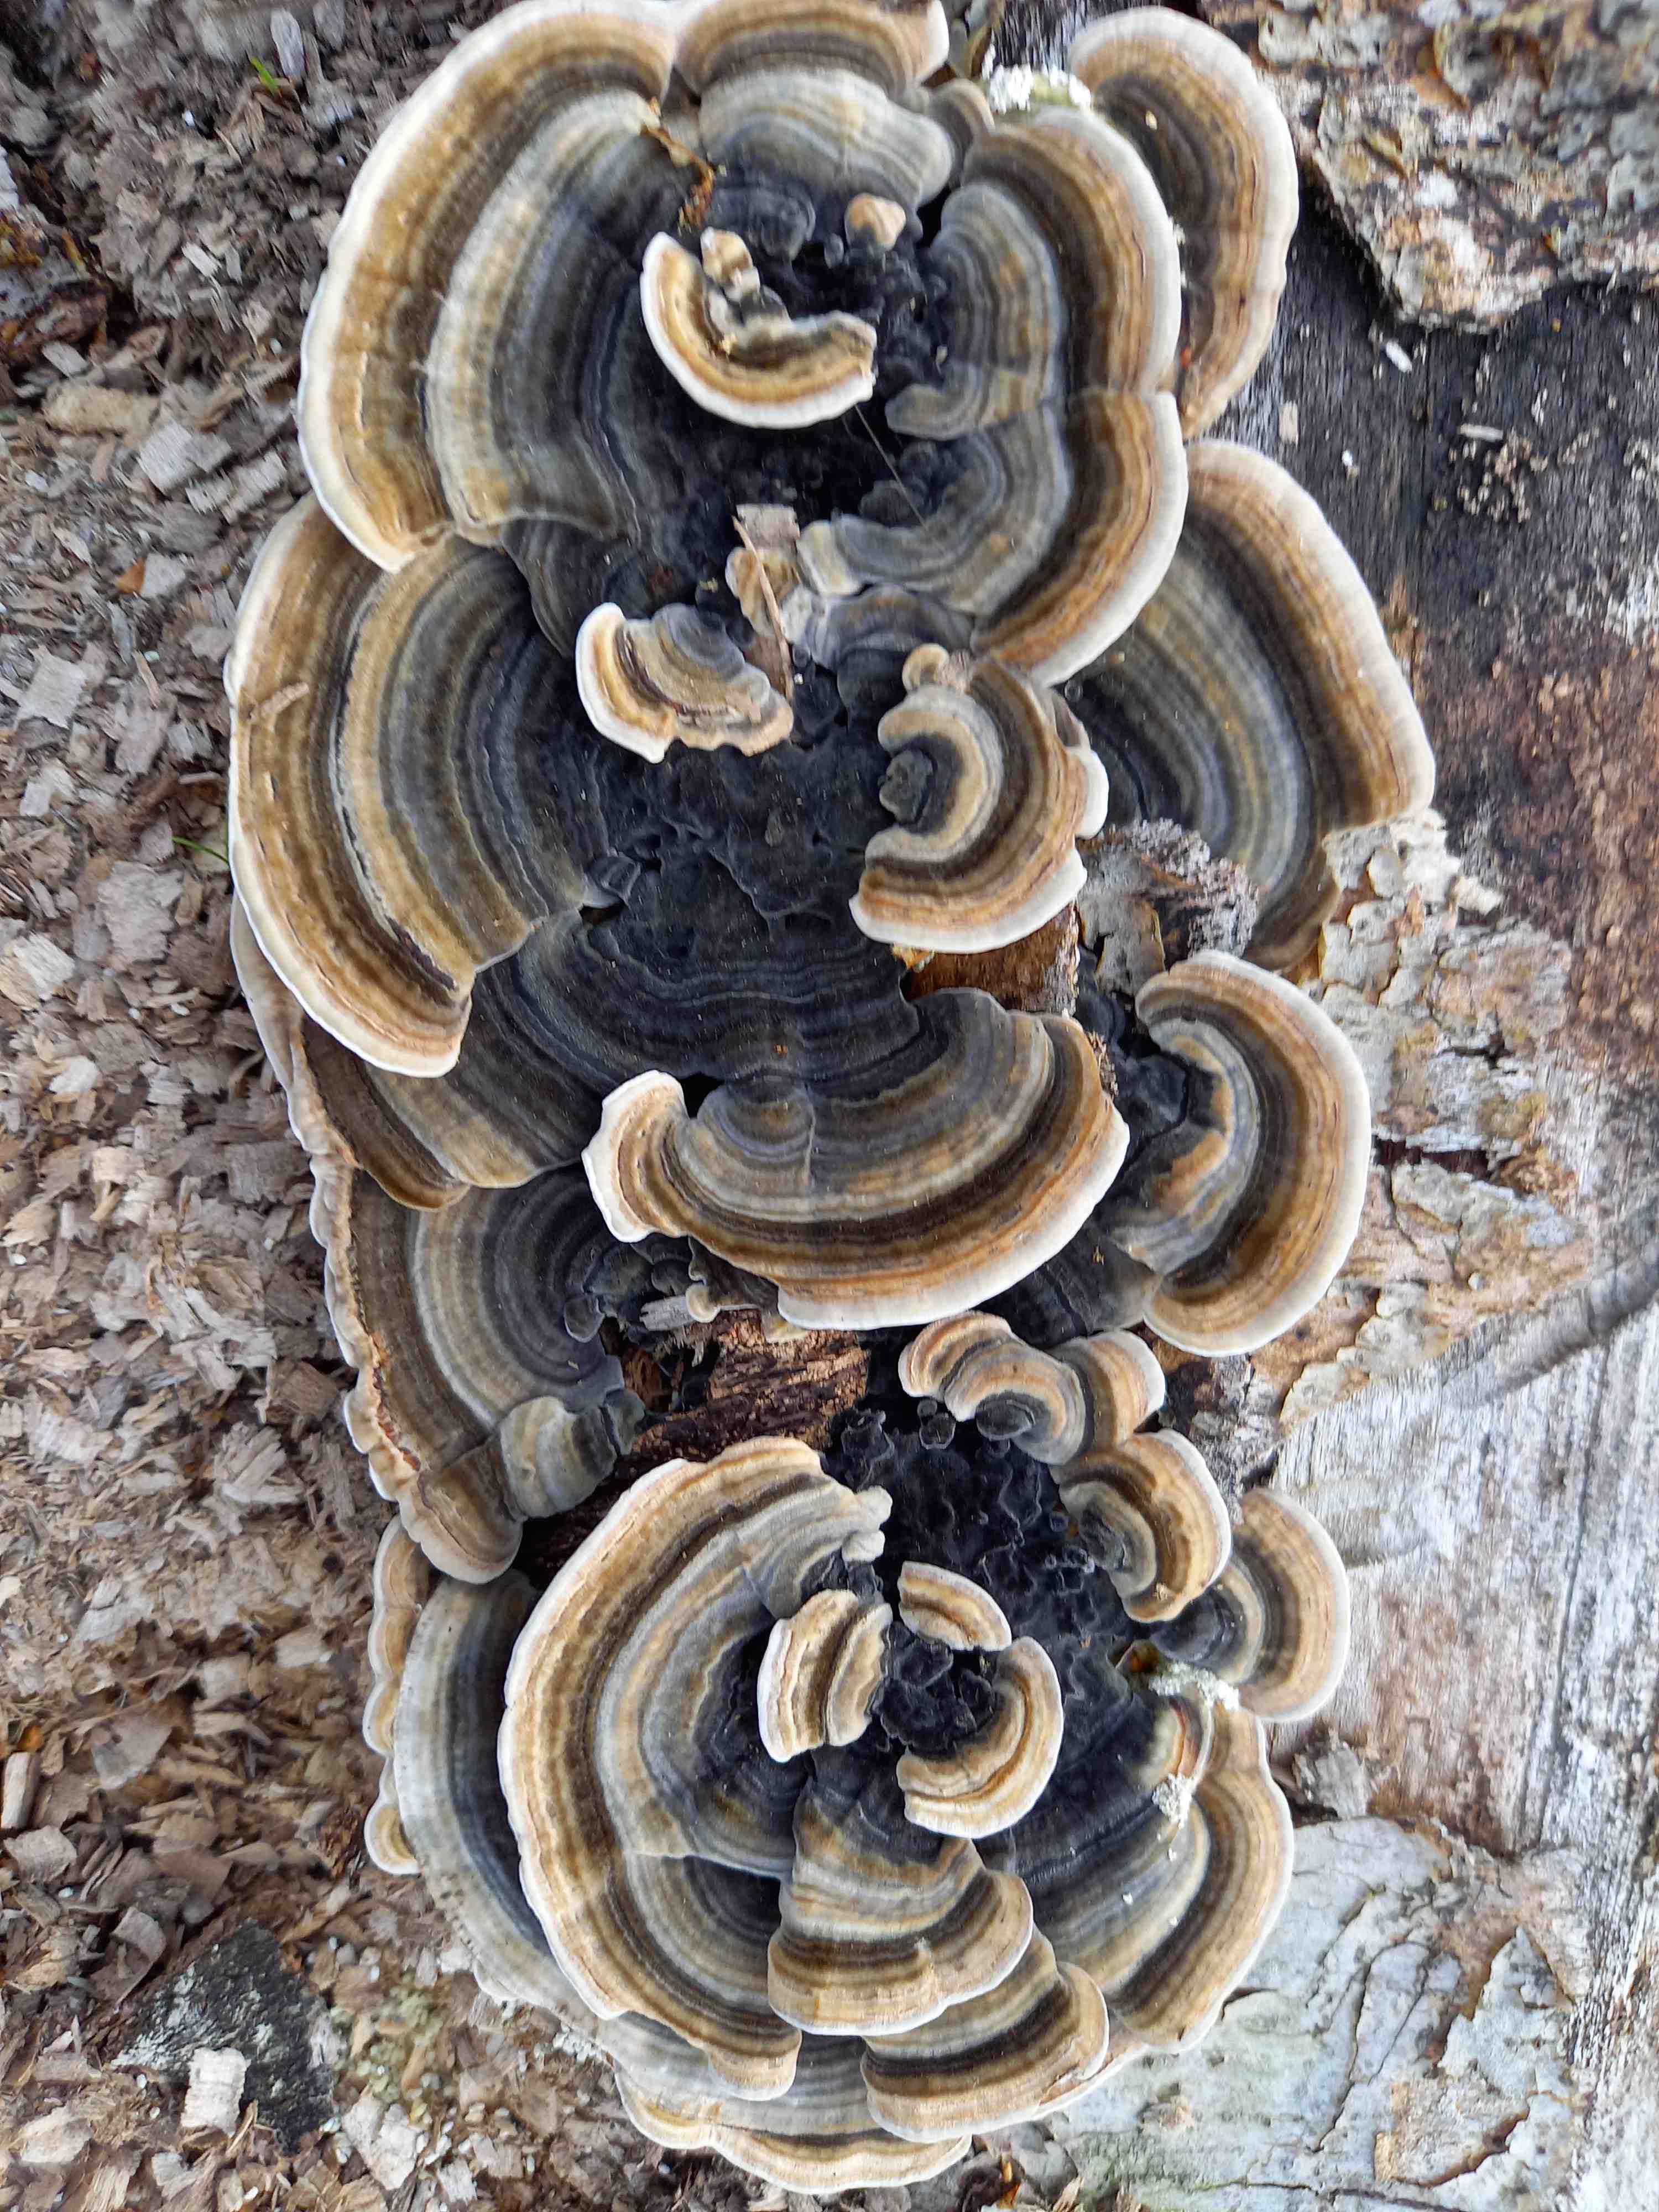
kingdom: Fungi
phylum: Basidiomycota
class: Agaricomycetes
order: Polyporales
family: Polyporaceae
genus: Trametes
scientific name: Trametes versicolor
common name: broget læderporesvamp
